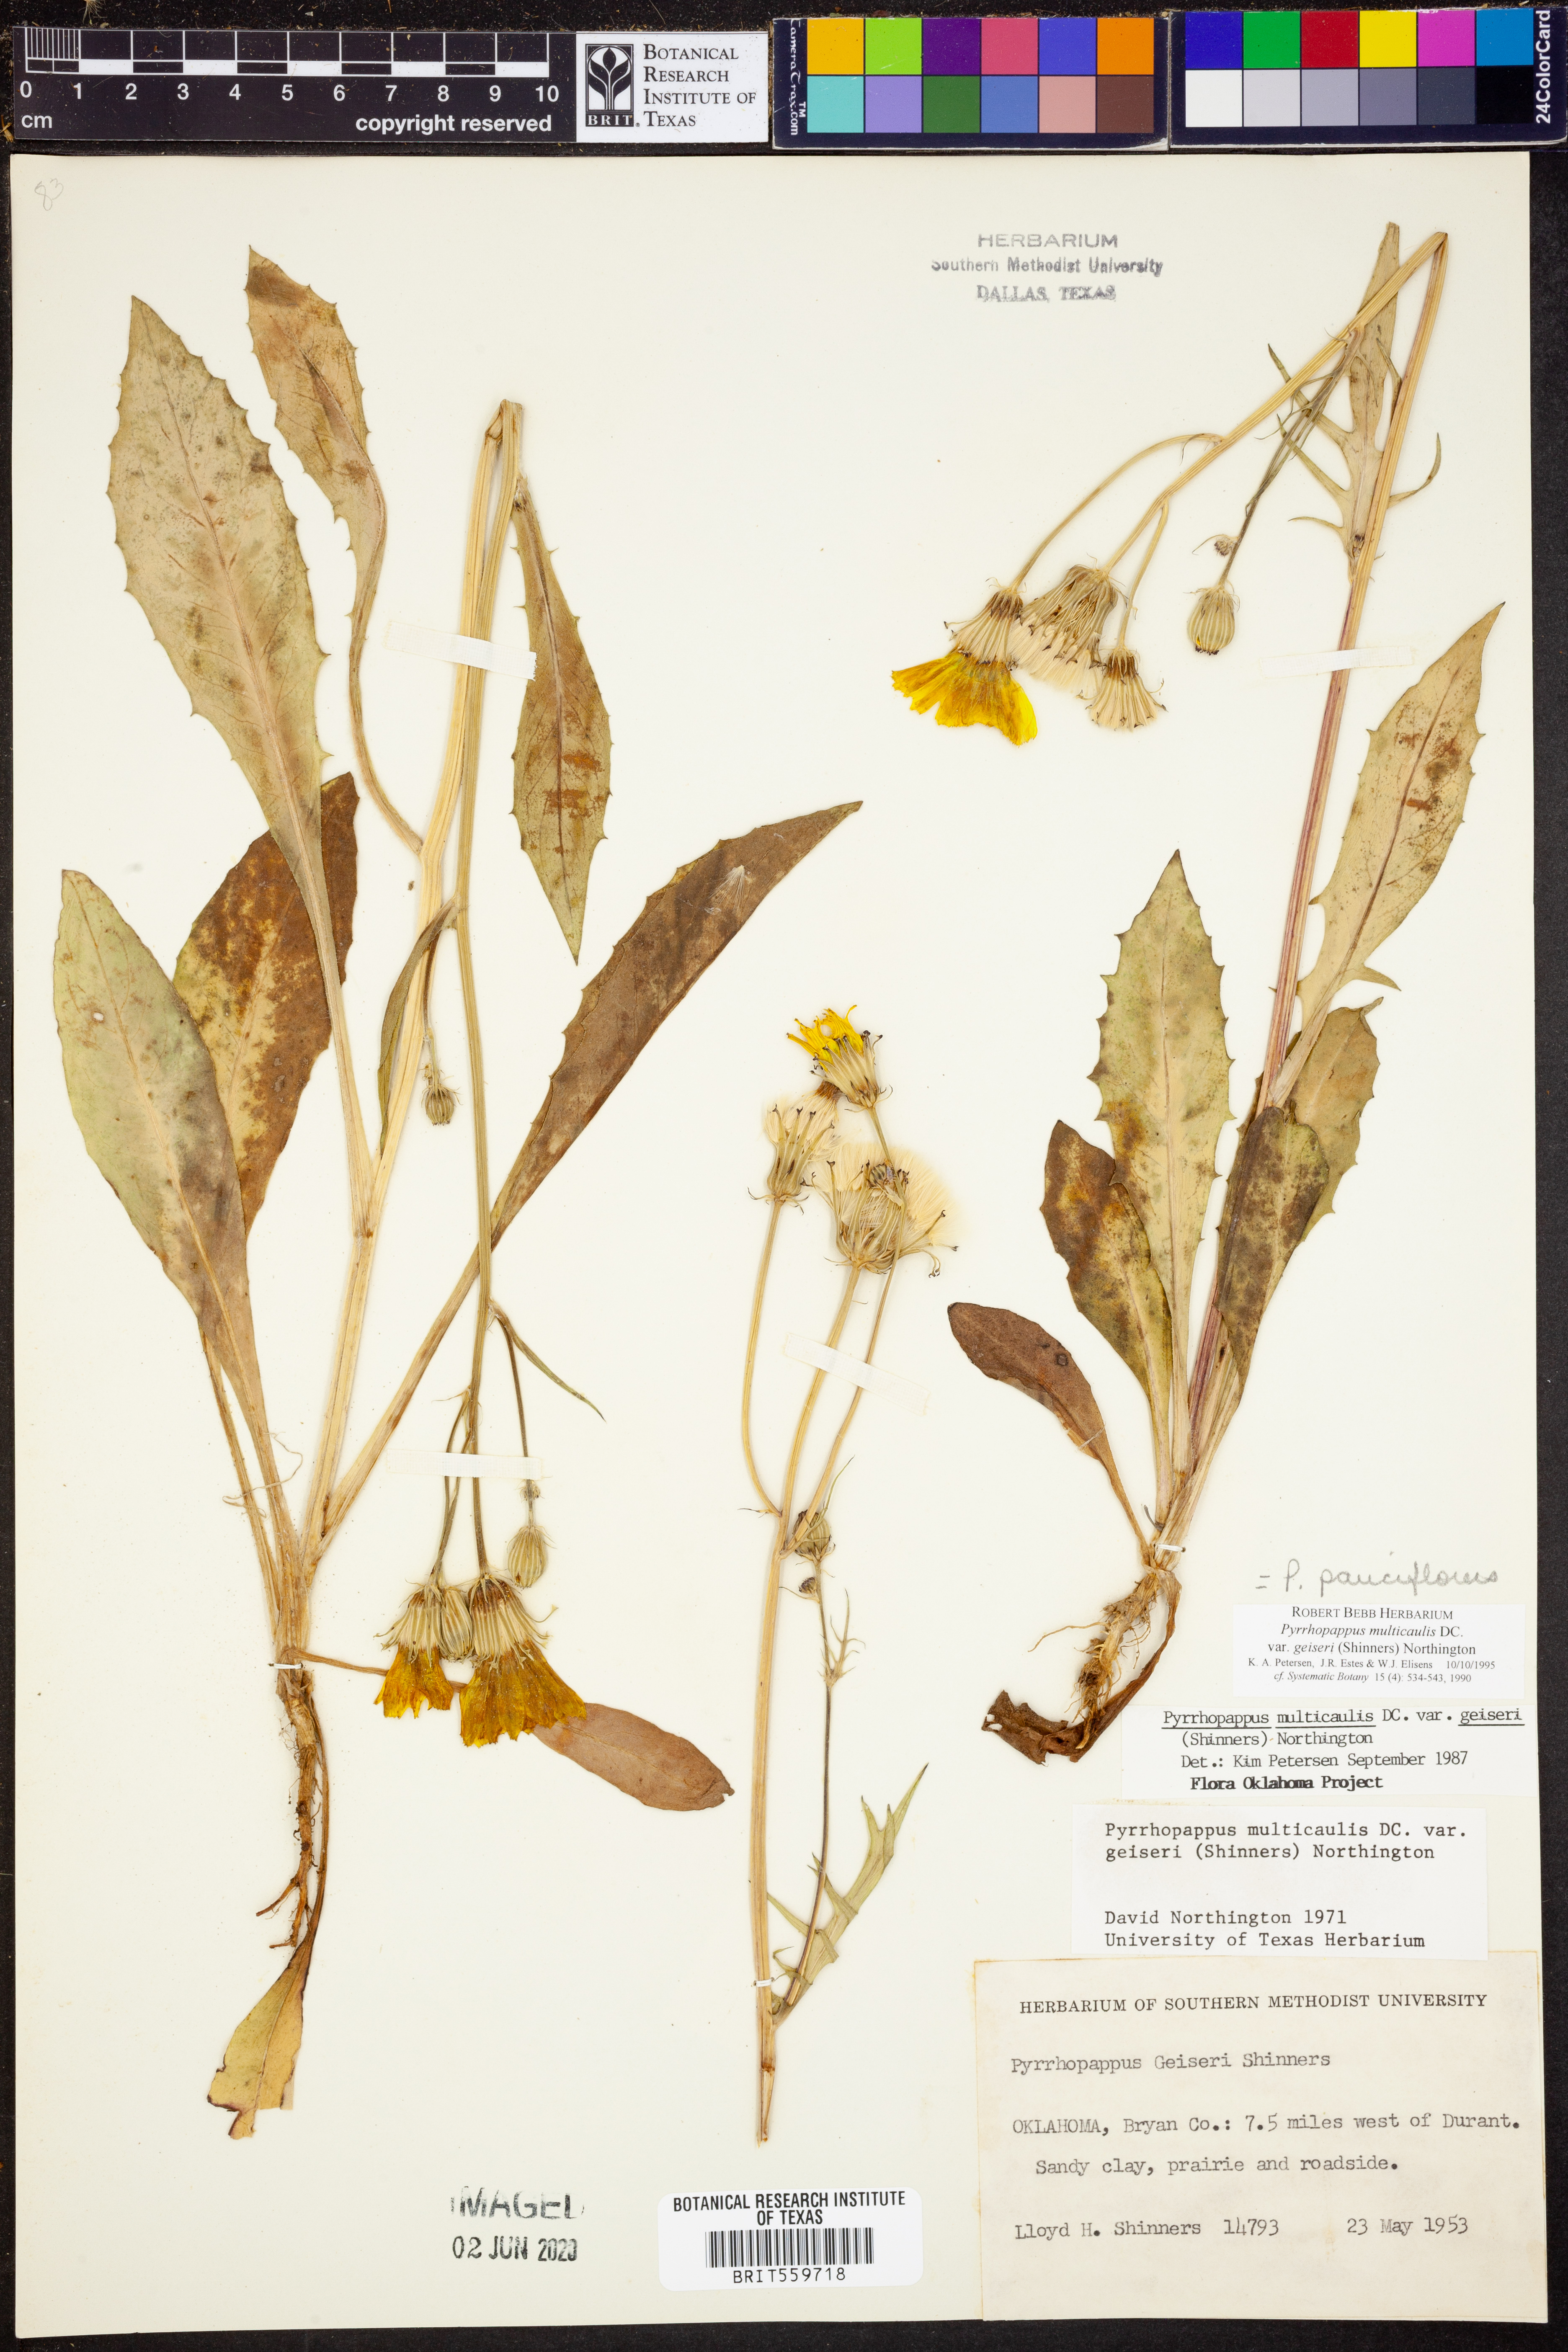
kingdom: Plantae
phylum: Tracheophyta
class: Magnoliopsida
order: Asterales
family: Asteraceae
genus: Pyrrhopappus
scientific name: Pyrrhopappus pauciflorus
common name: Texas false dandelion
